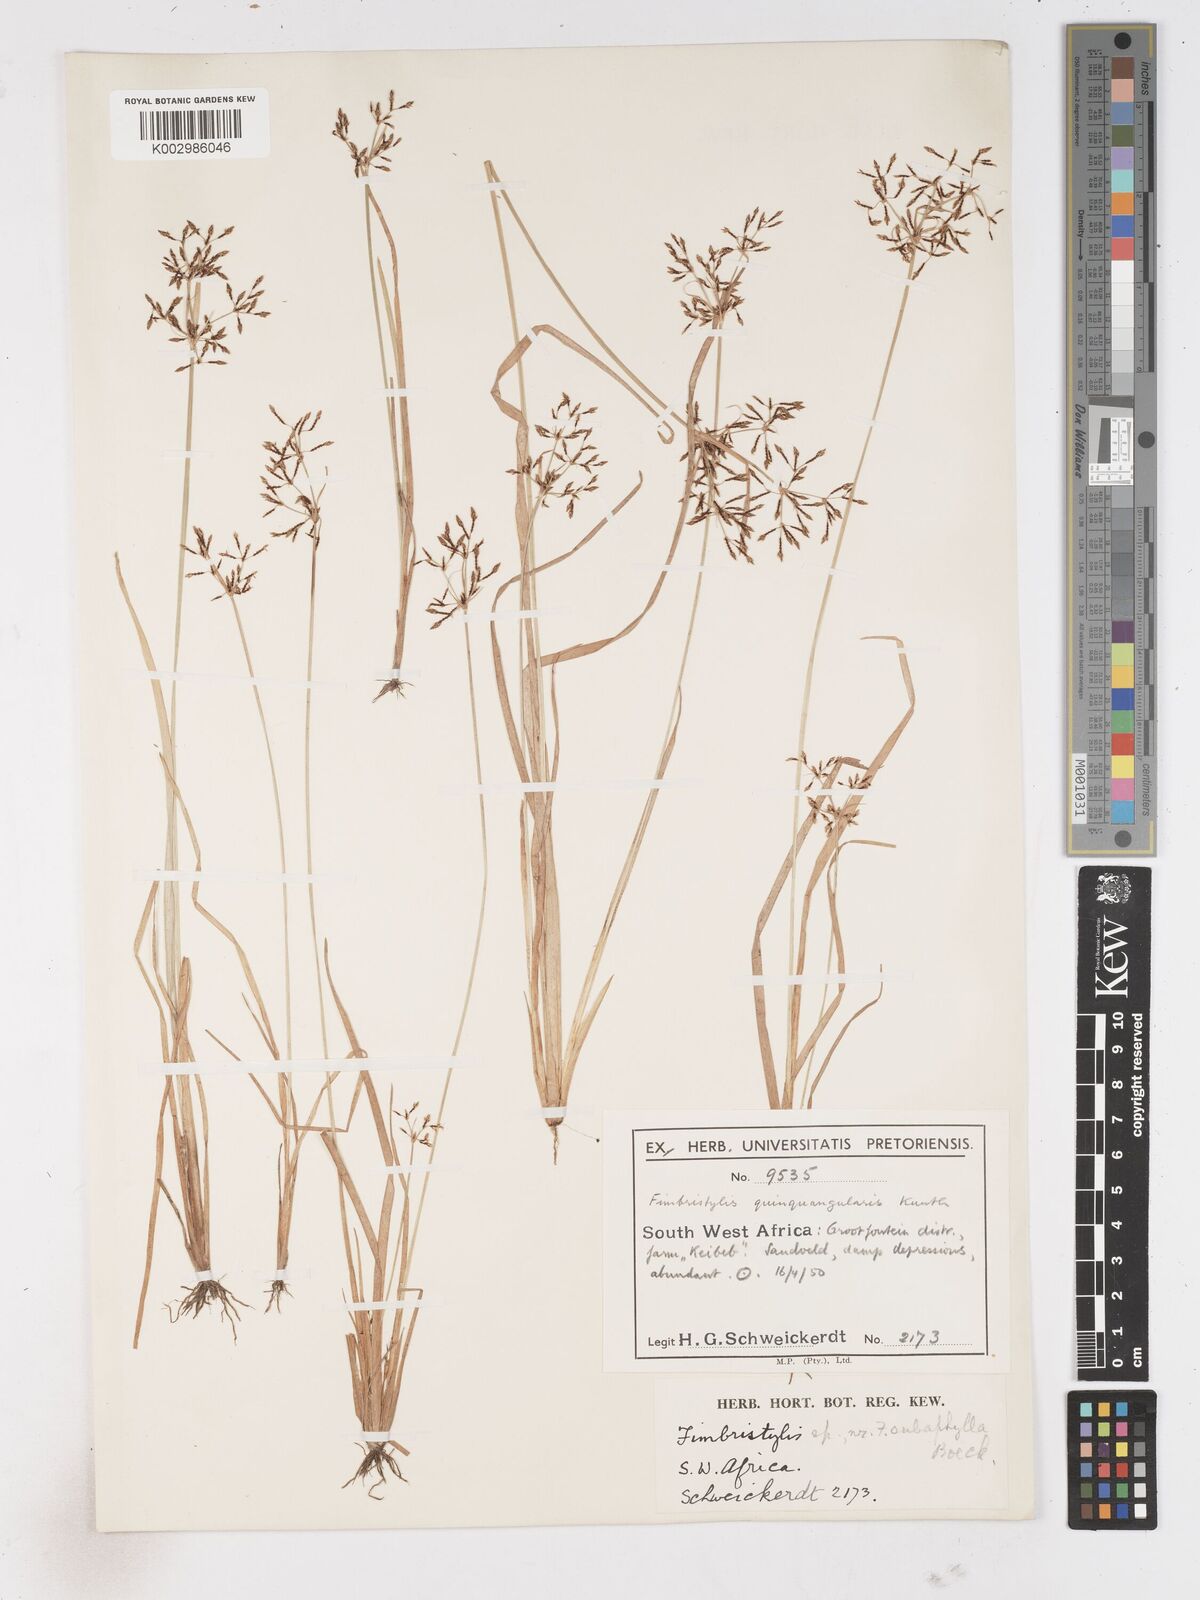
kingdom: Plantae
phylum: Tracheophyta
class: Liliopsida
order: Poales
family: Cyperaceae
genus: Fimbristylis
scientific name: Fimbristylis
